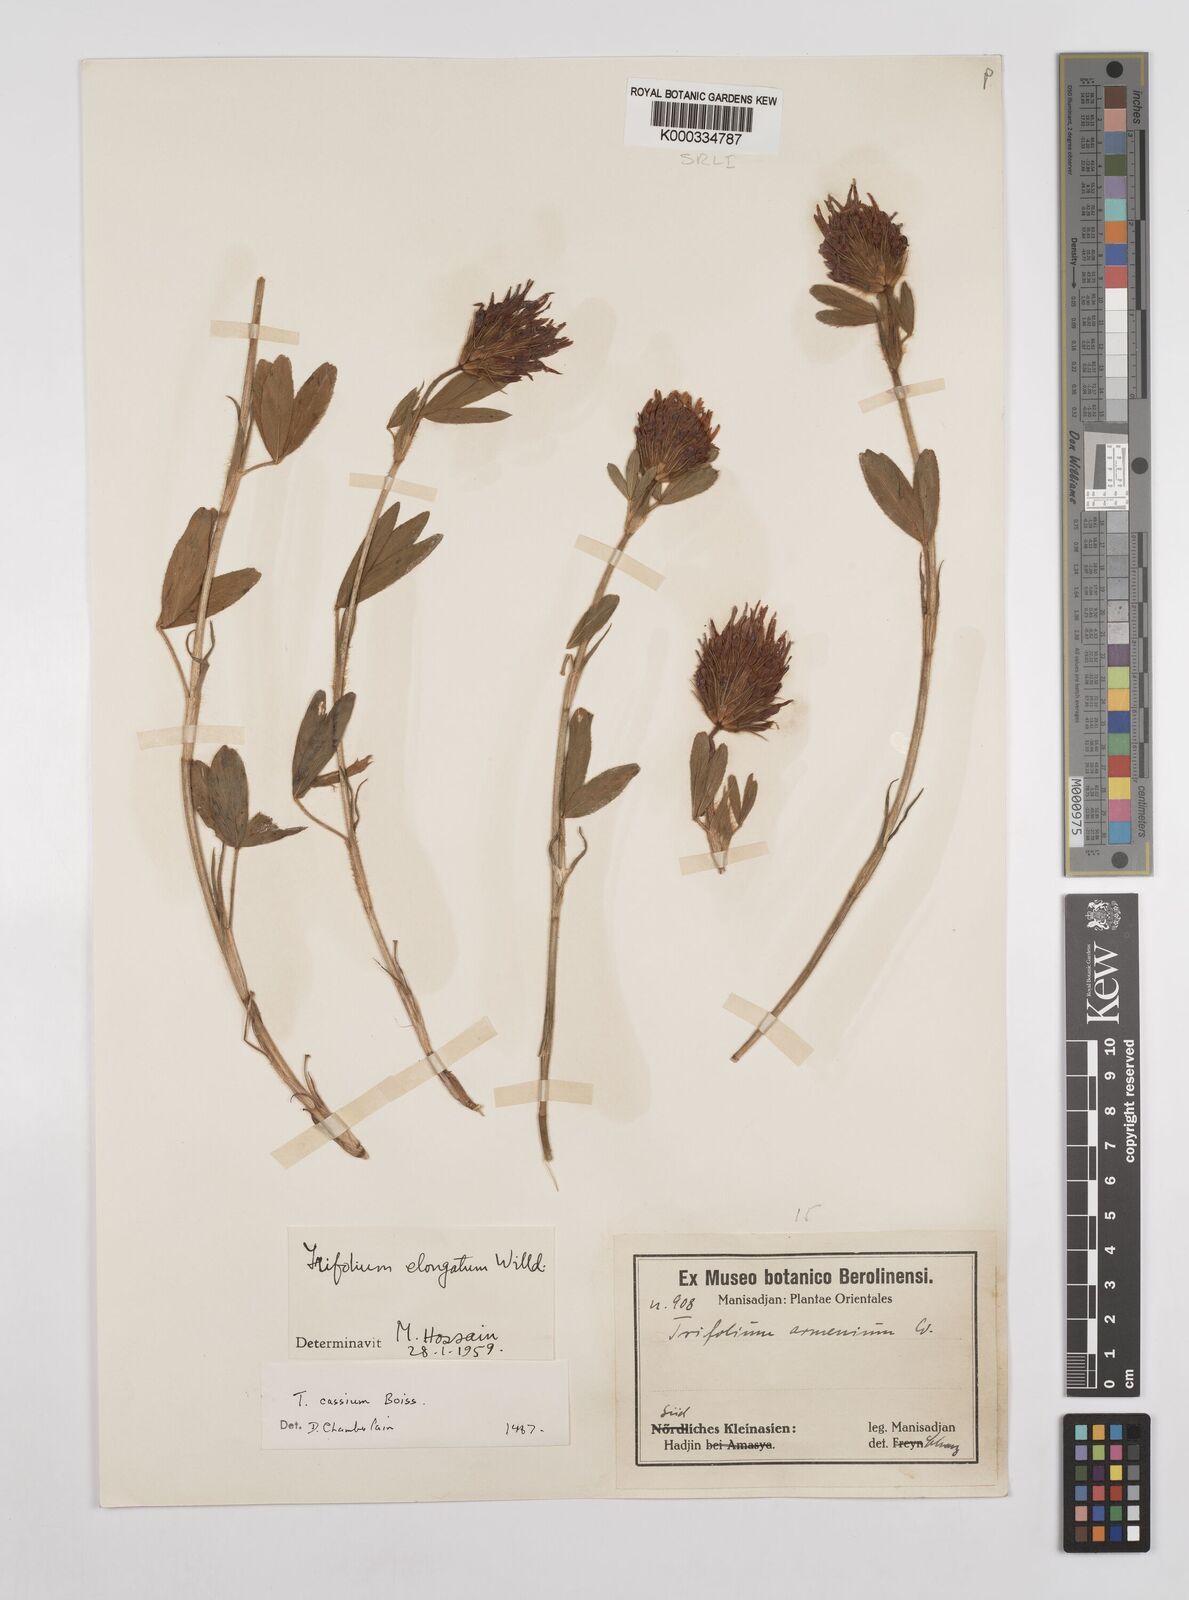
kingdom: Plantae
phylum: Tracheophyta
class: Magnoliopsida
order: Fabales
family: Fabaceae
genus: Trifolium
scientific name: Trifolium ochroleucon
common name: Sulphur clover
